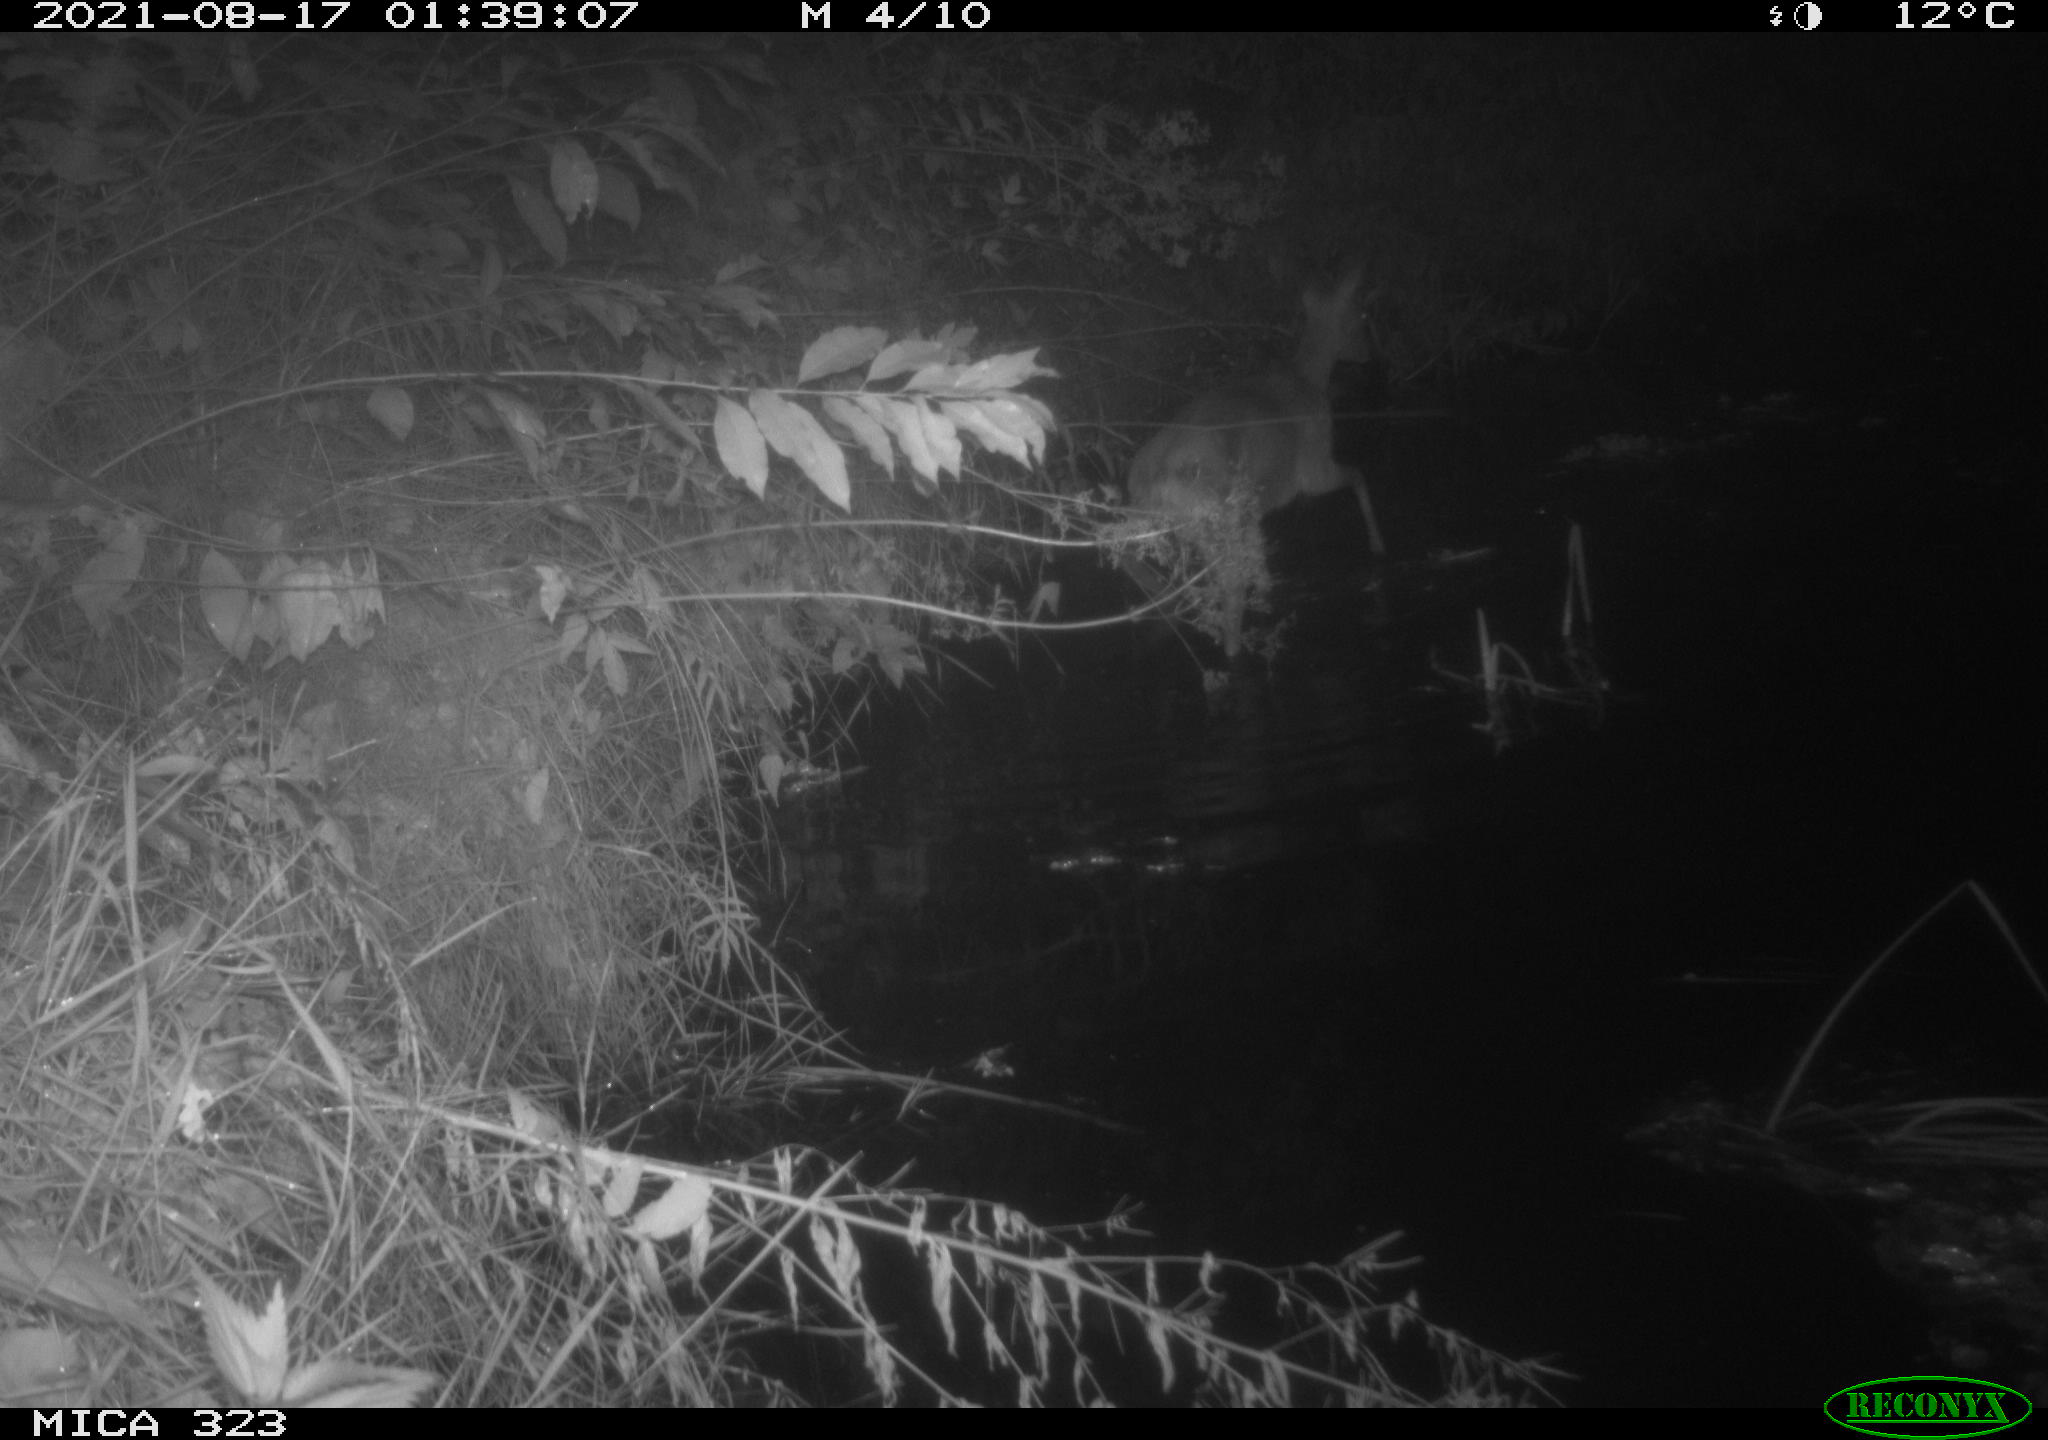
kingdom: Animalia
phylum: Chordata
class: Mammalia
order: Artiodactyla
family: Cervidae
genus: Capreolus
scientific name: Capreolus capreolus
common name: Western roe deer
